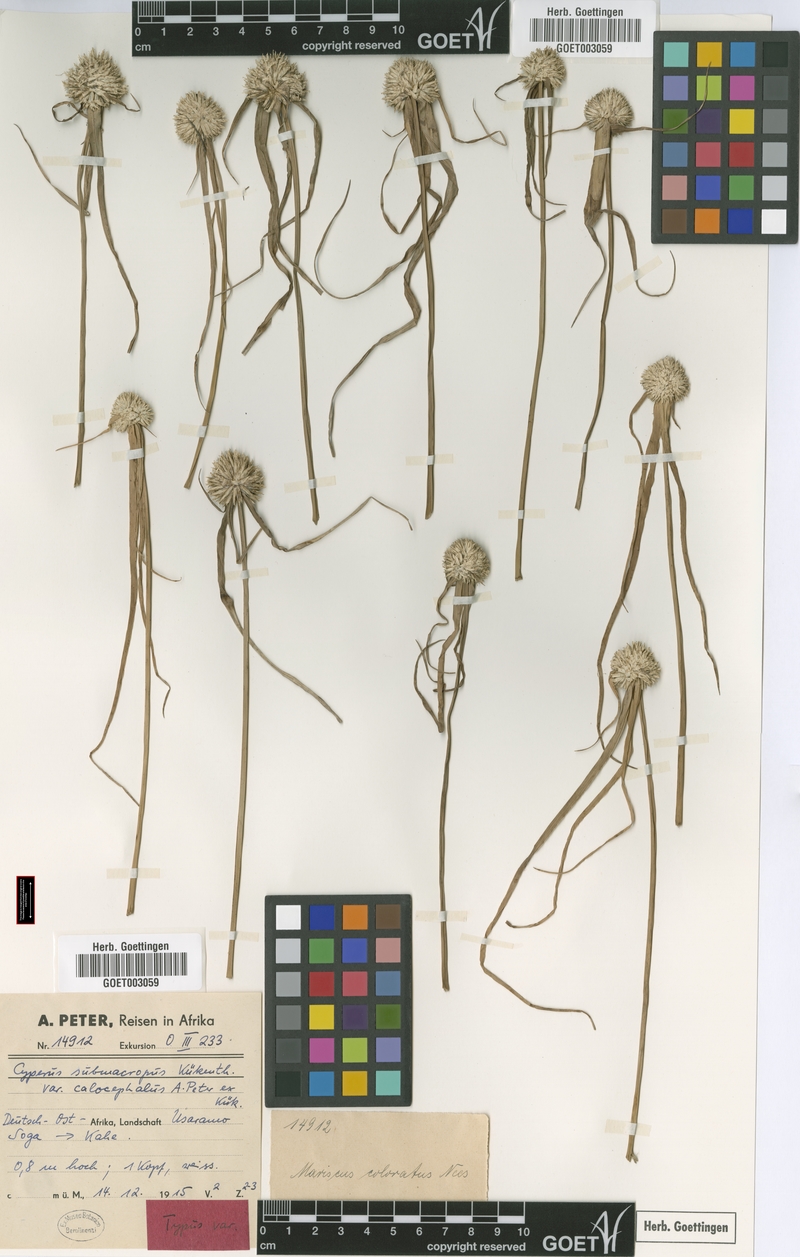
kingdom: Plantae
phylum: Tracheophyta
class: Liliopsida
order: Poales
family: Cyperaceae
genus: Cyperus
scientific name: Cyperus mollipes
